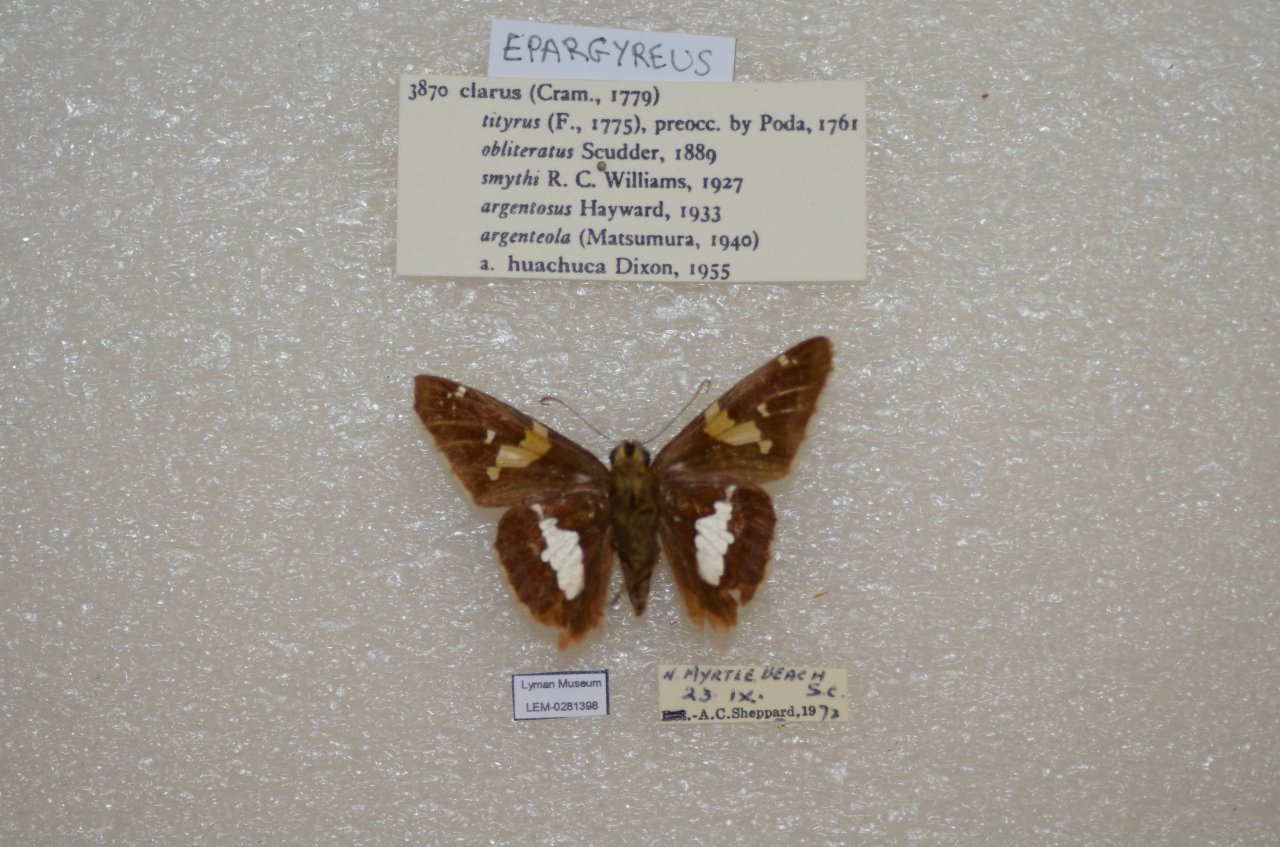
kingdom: Animalia
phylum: Arthropoda
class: Insecta
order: Lepidoptera
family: Hesperiidae
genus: Epargyreus
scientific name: Epargyreus clarus
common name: Silver-spotted Skipper
